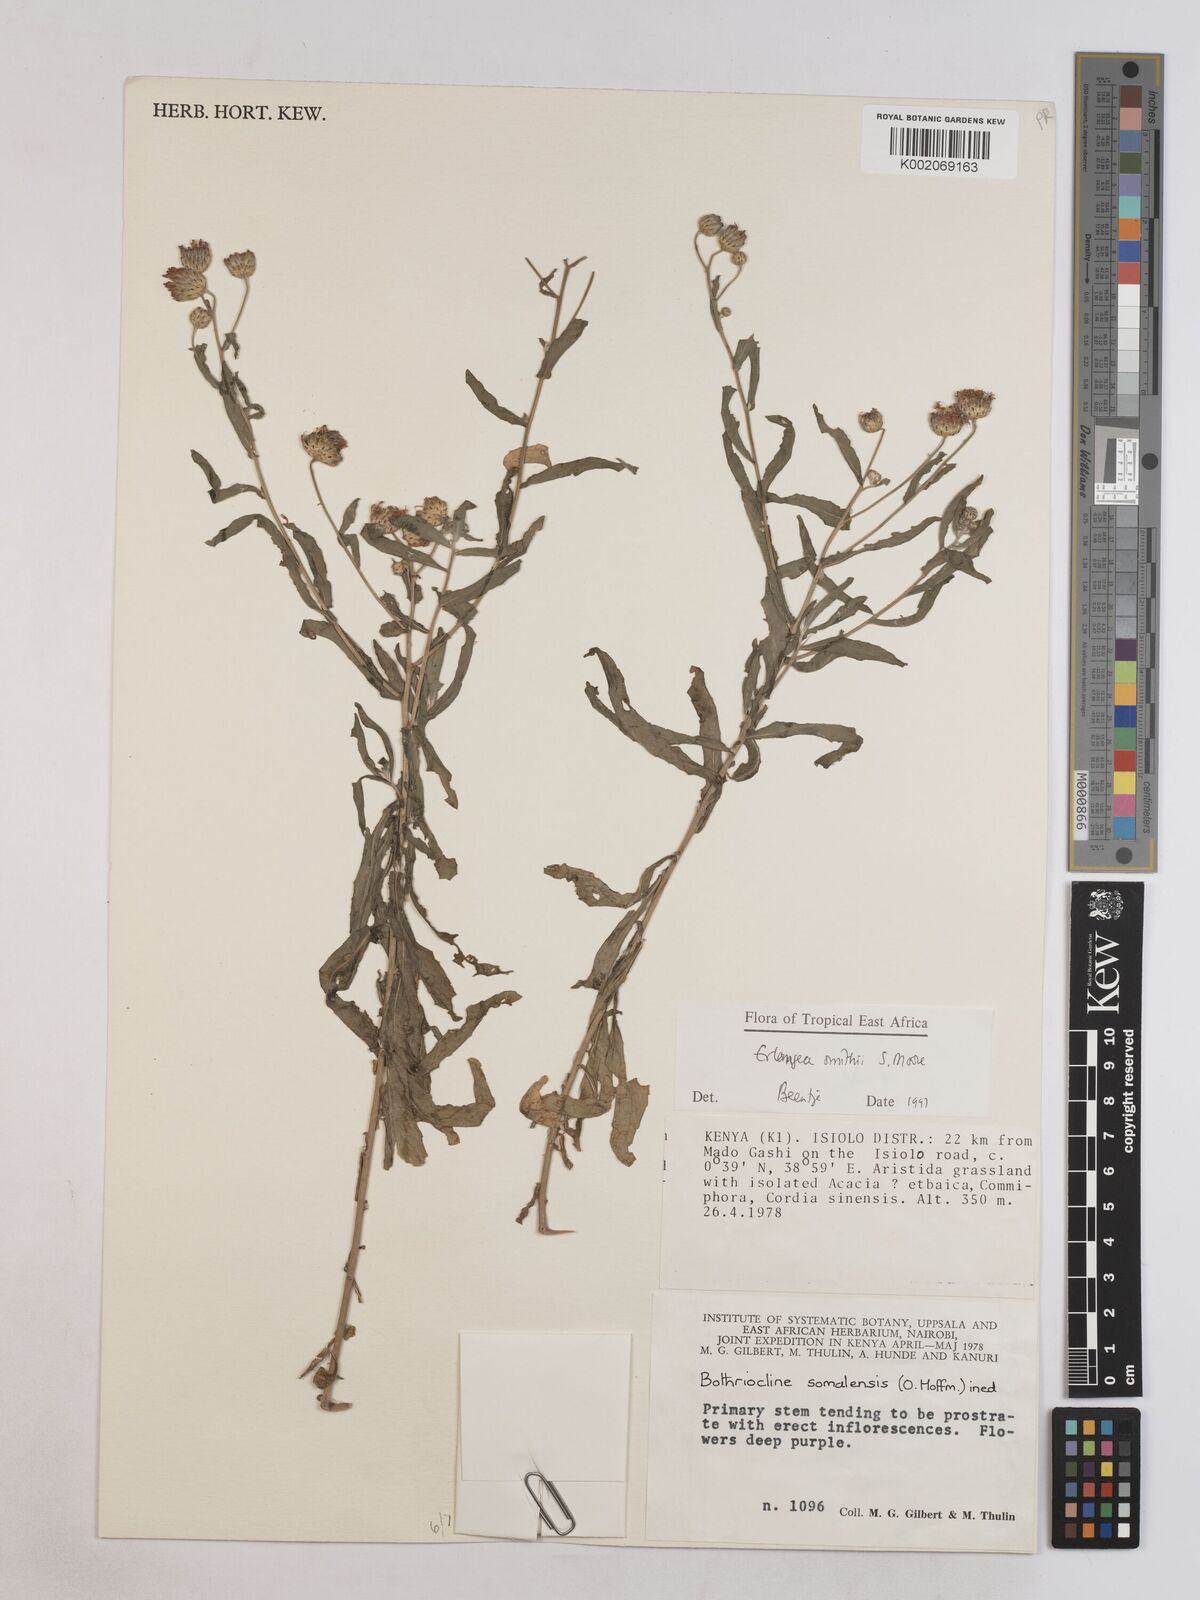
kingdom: Plantae
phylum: Tracheophyta
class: Magnoliopsida
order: Asterales
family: Asteraceae
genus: Erlangea
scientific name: Erlangea smithii
